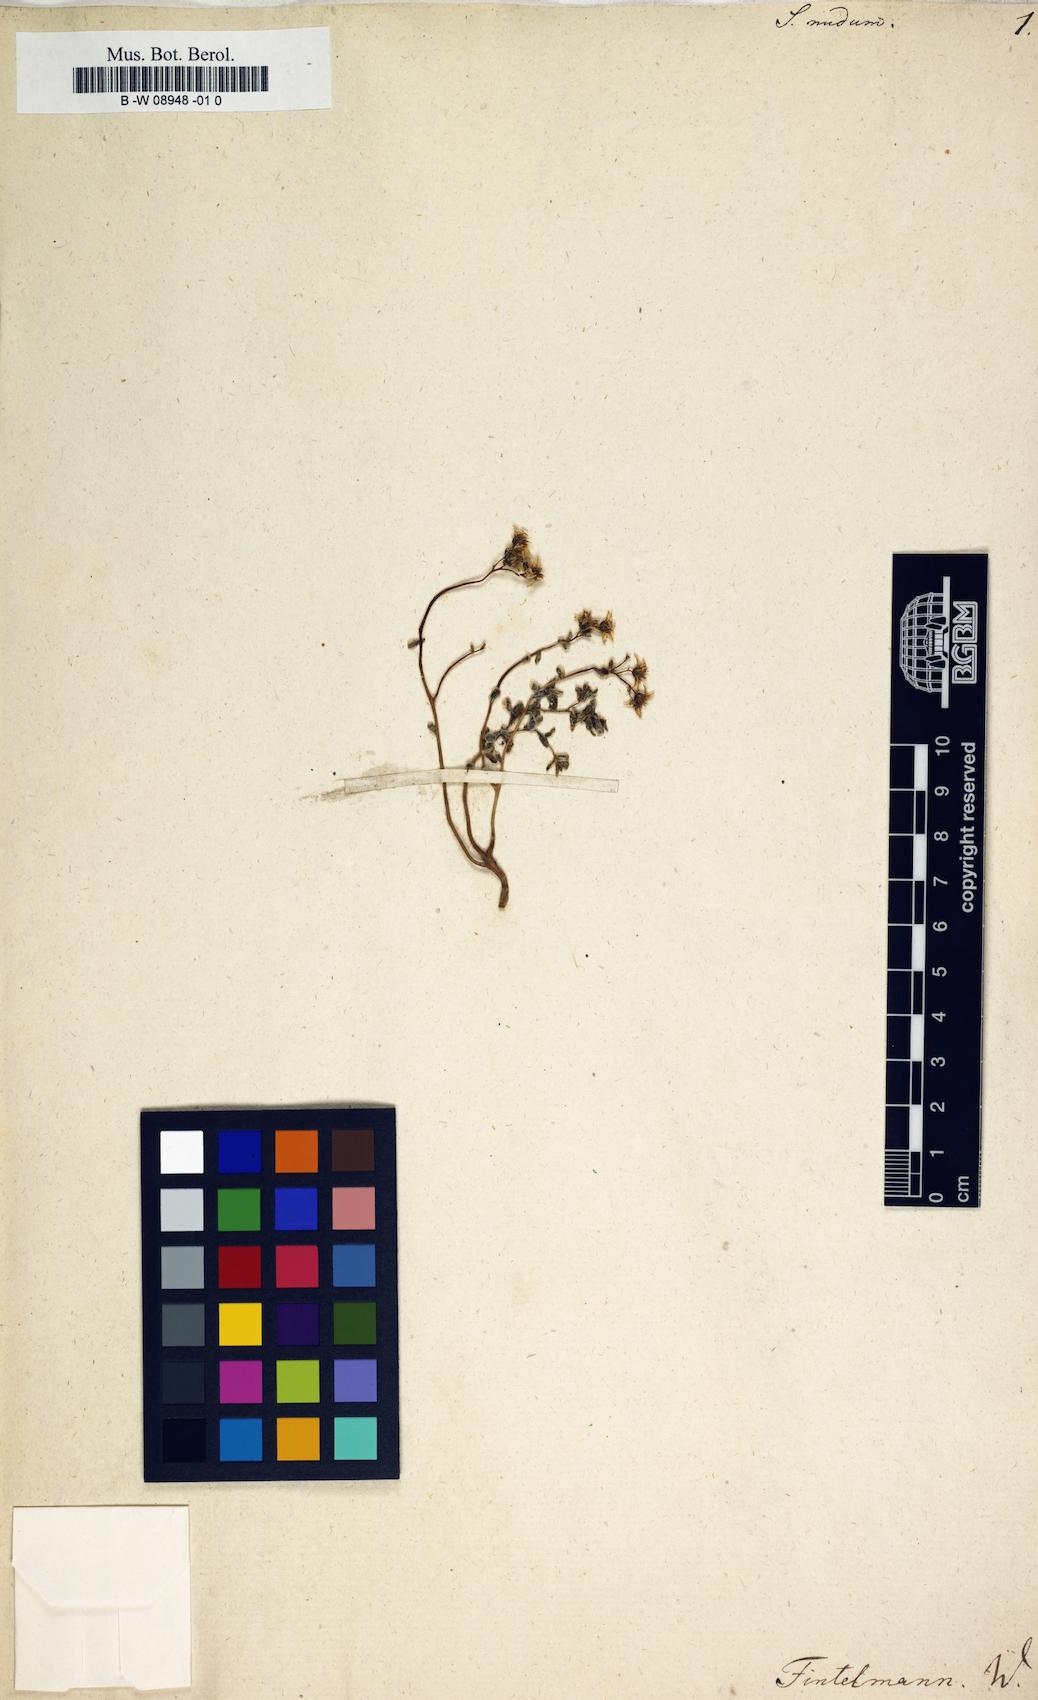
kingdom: Plantae
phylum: Tracheophyta
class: Magnoliopsida
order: Saxifragales
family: Crassulaceae
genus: Sedum
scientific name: Sedum nudum
